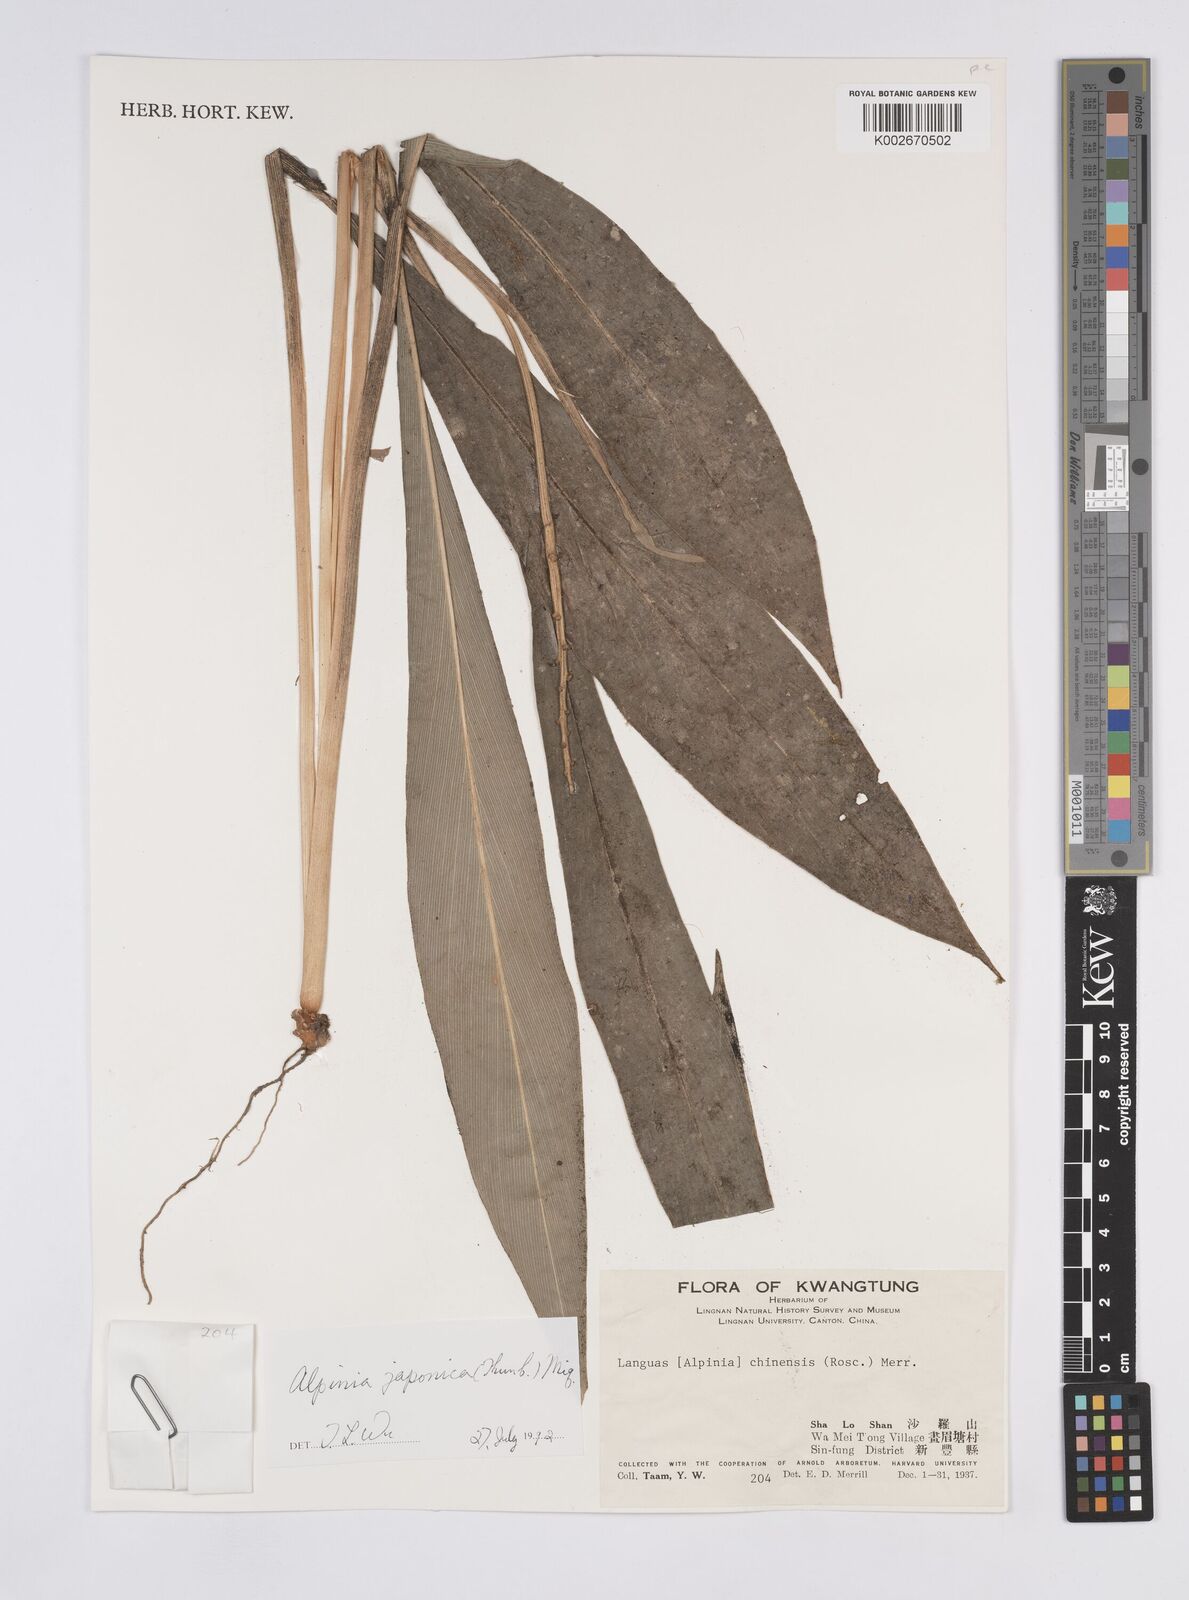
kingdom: Plantae
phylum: Tracheophyta
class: Liliopsida
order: Zingiberales
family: Zingiberaceae
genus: Alpinia
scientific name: Alpinia japonica
